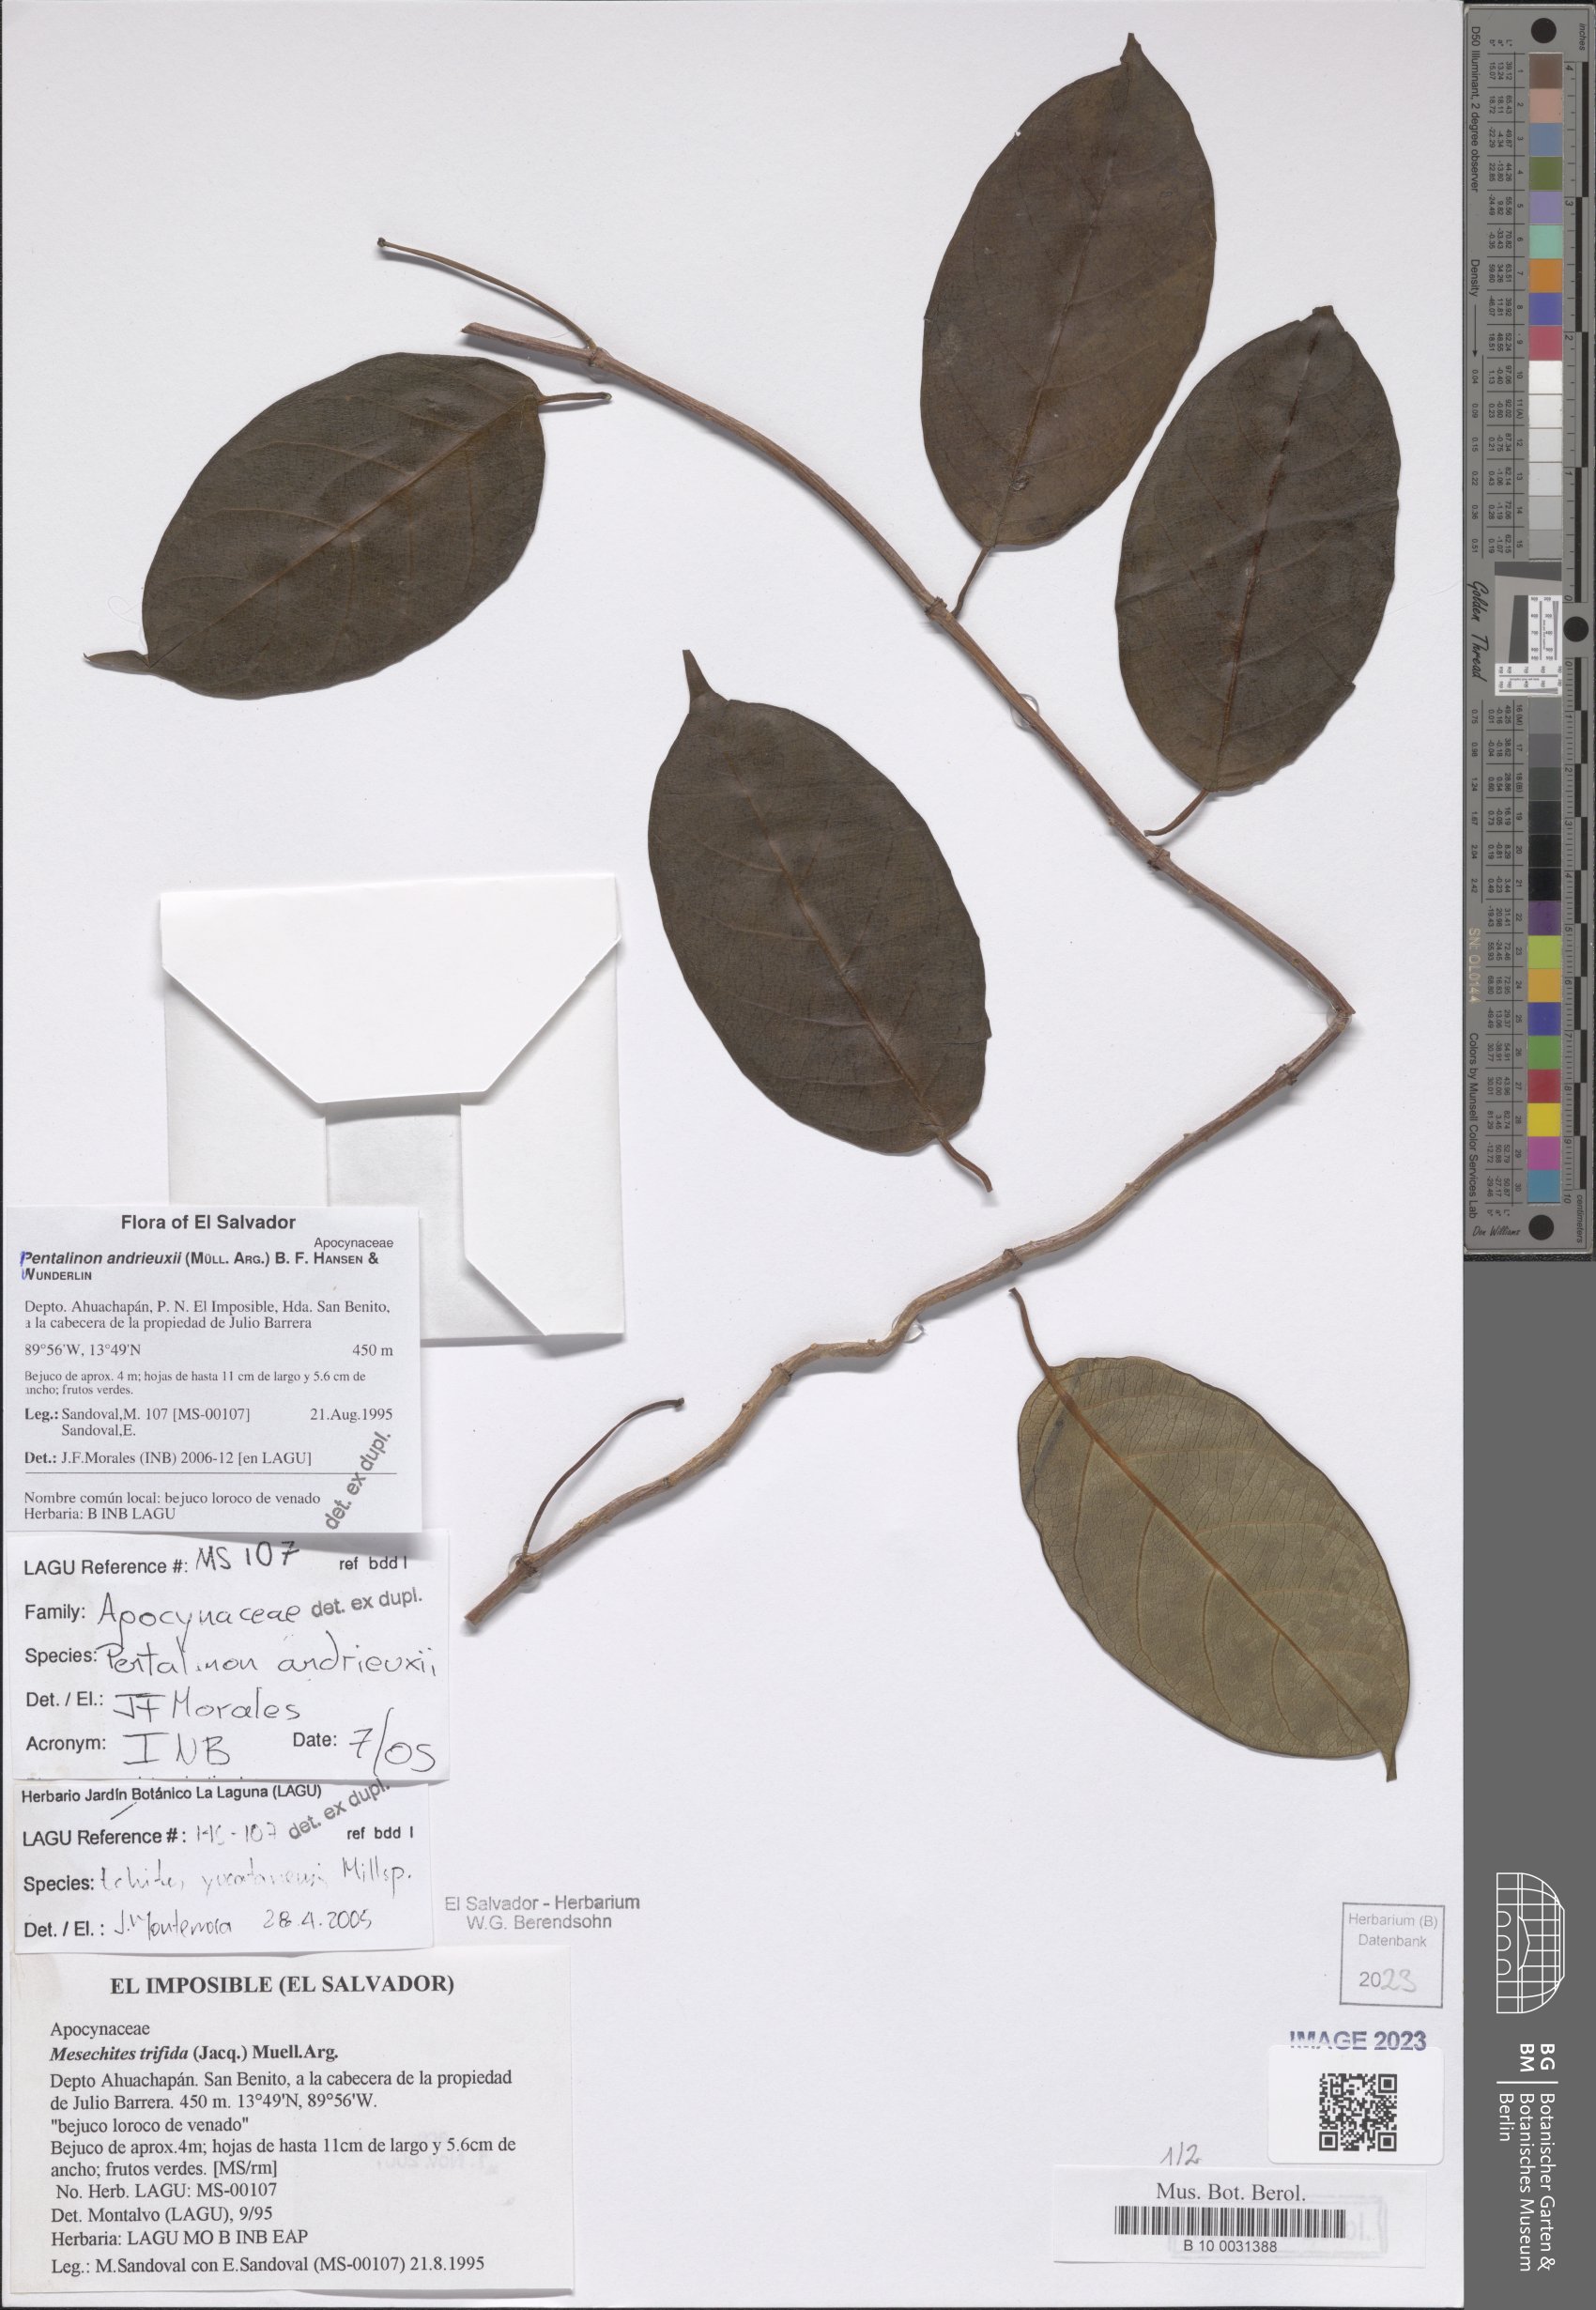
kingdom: Plantae
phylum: Tracheophyta
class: Magnoliopsida
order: Gentianales
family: Apocynaceae
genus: Pentalinon
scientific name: Pentalinon andrieuxii
